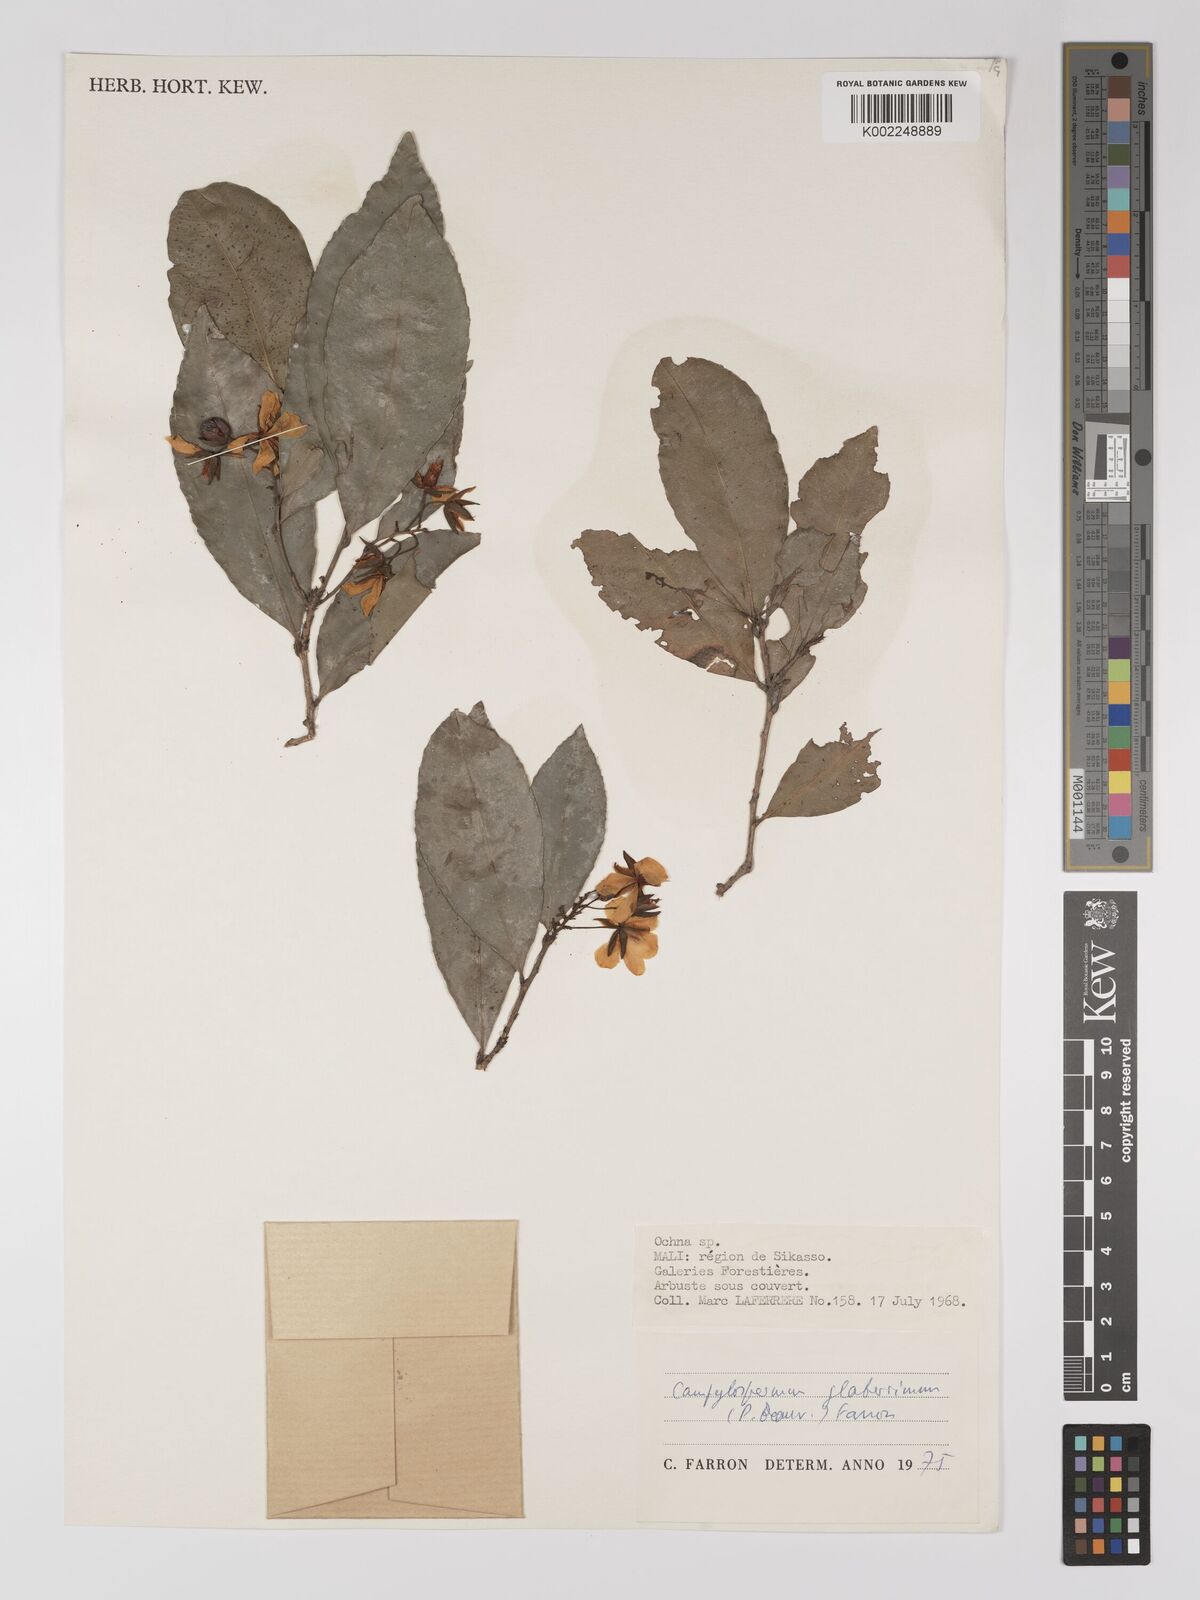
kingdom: Plantae
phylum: Tracheophyta
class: Magnoliopsida
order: Malpighiales
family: Ochnaceae
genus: Campylospermum
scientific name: Campylospermum glaberrimum
